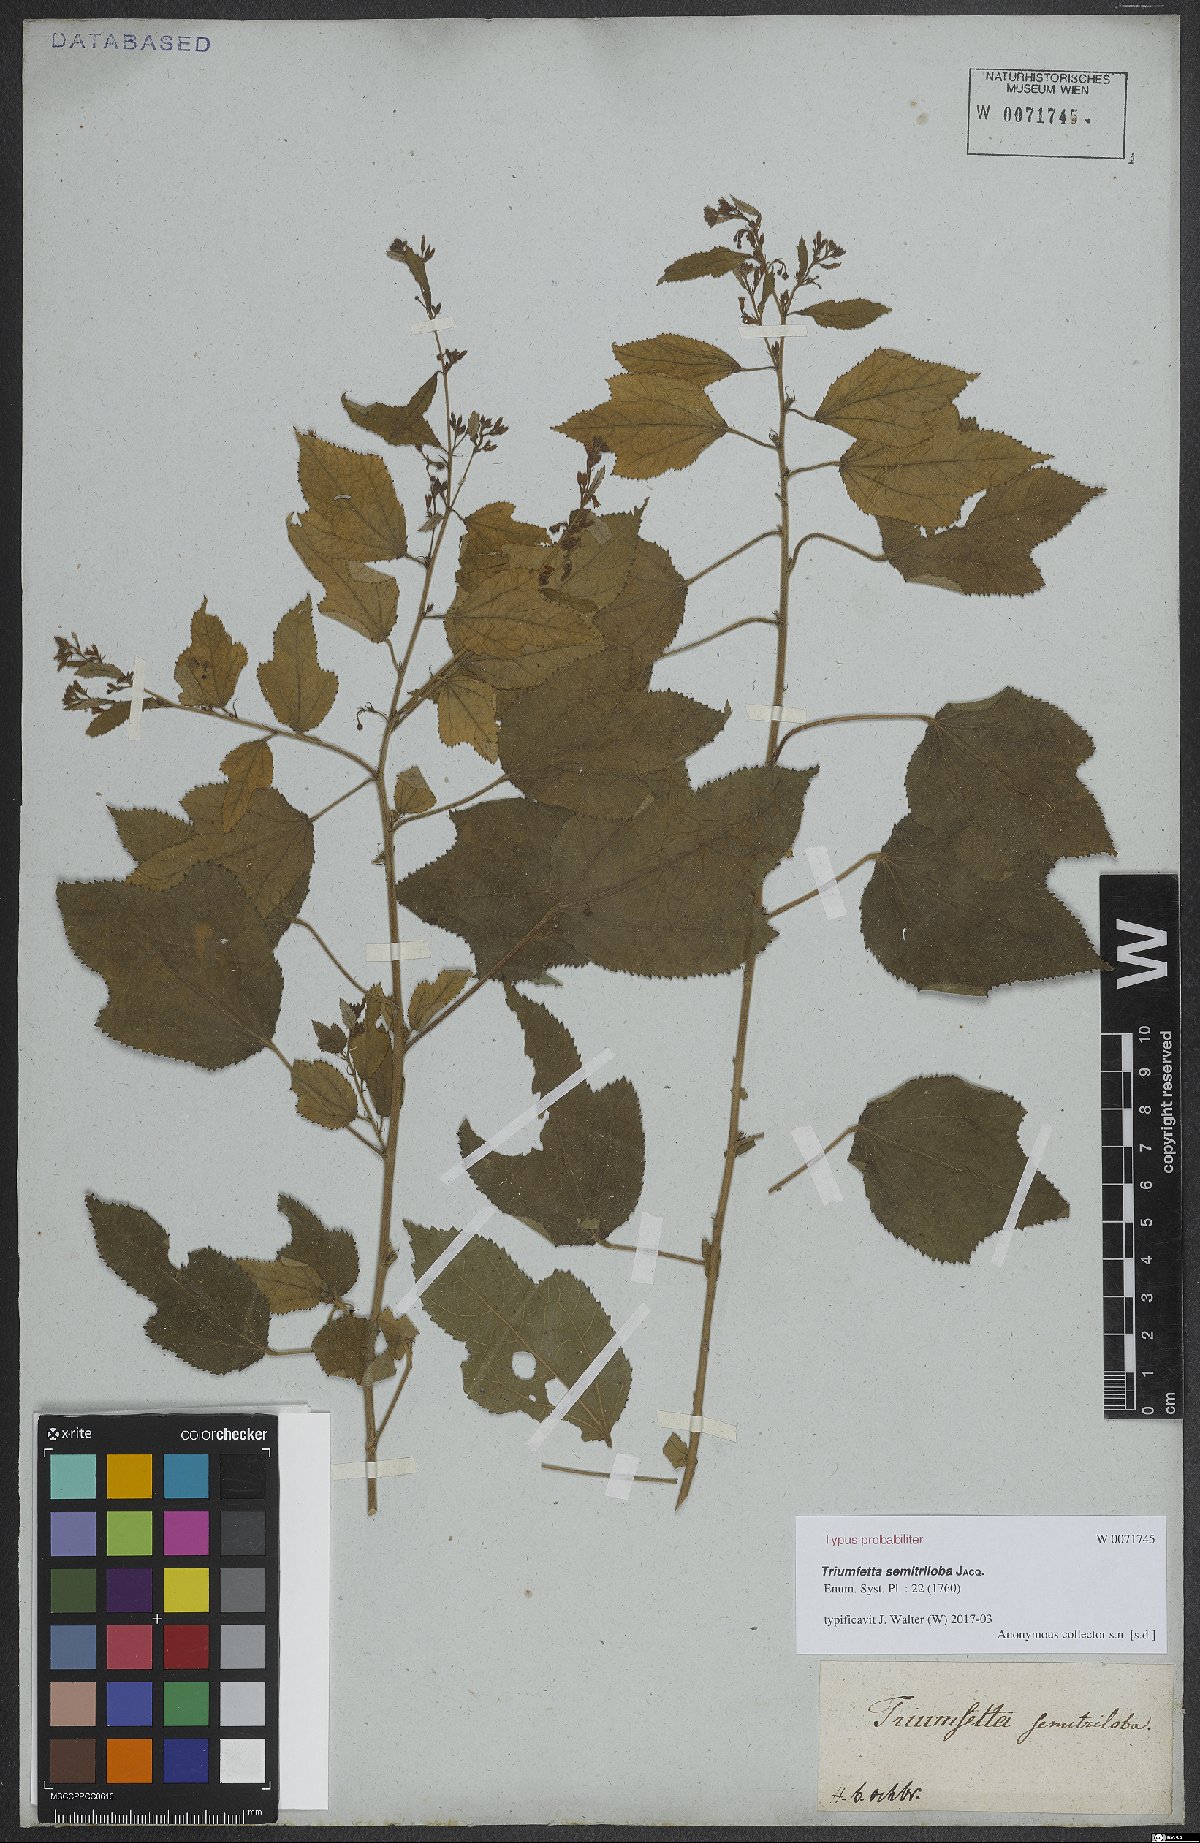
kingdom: Plantae
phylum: Tracheophyta
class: Magnoliopsida
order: Malvales
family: Malvaceae
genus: Triumfetta
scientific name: Triumfetta semitriloba
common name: Sacramento burbark
